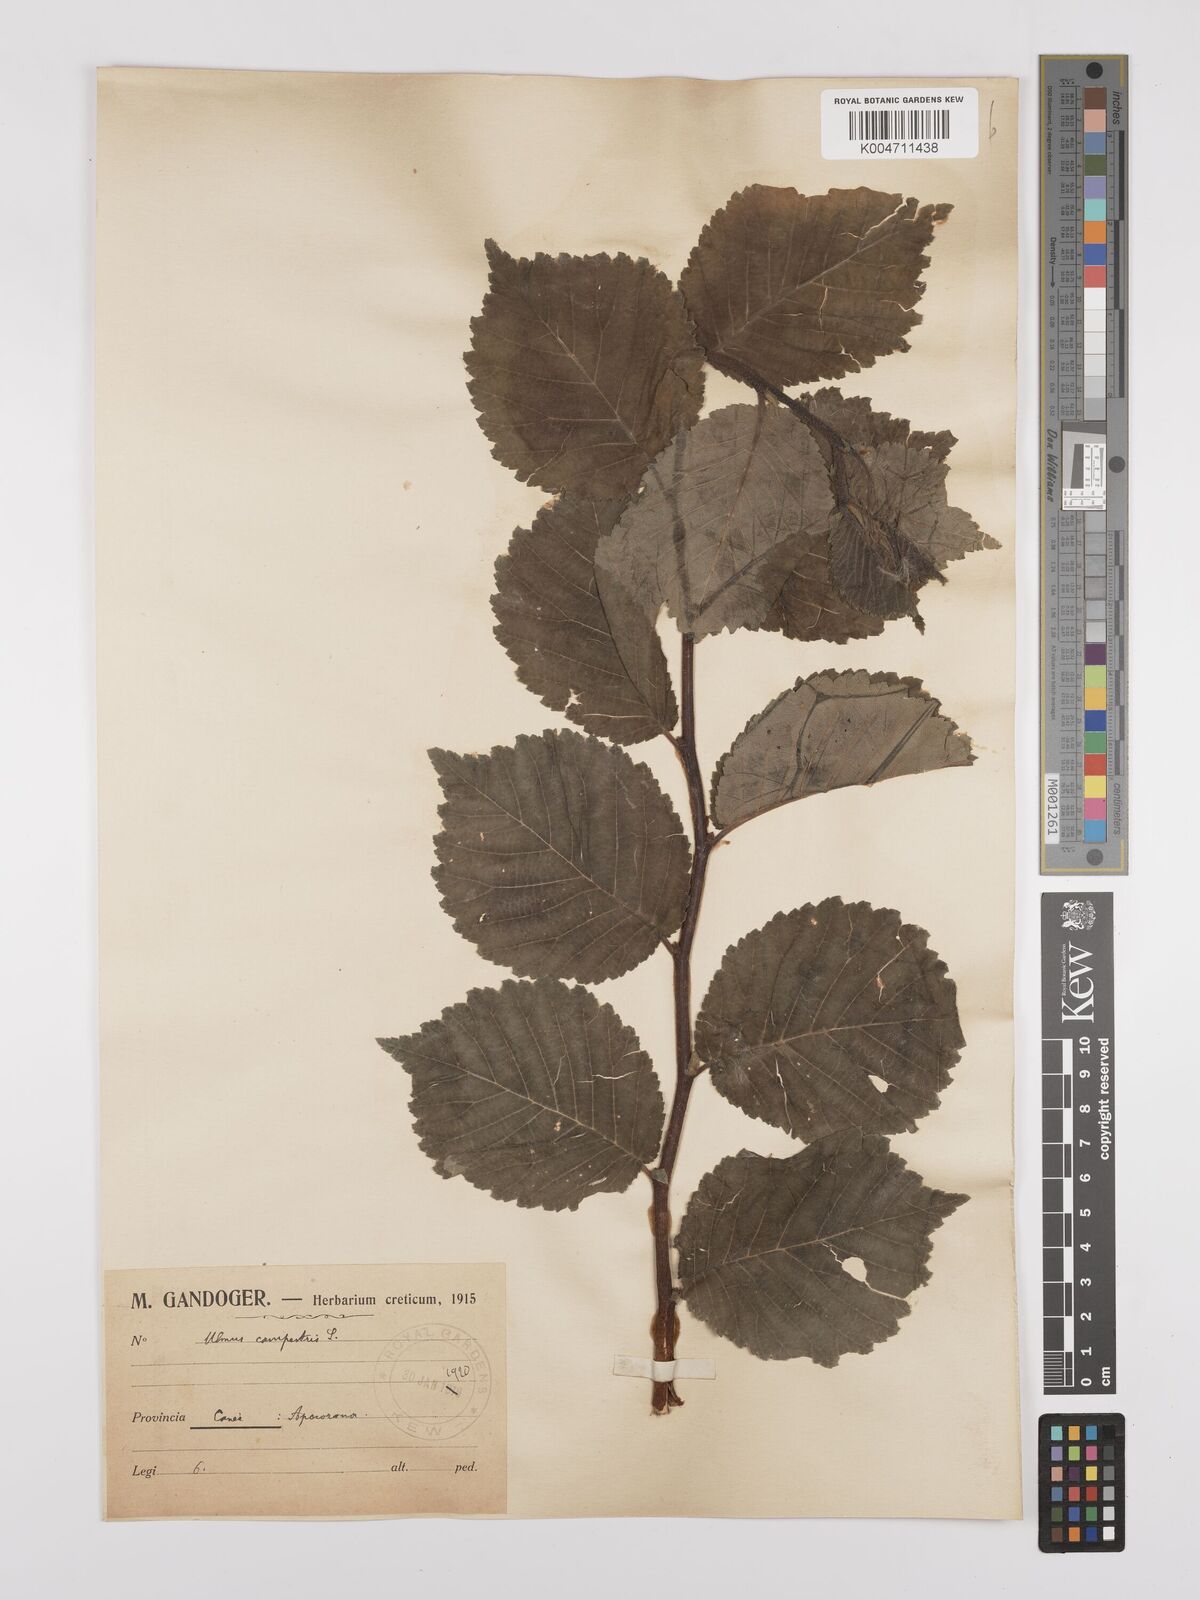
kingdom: Plantae
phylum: Tracheophyta
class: Magnoliopsida
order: Rosales
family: Ulmaceae
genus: Ulmus
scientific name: Ulmus minor
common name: Small-leaved elm
